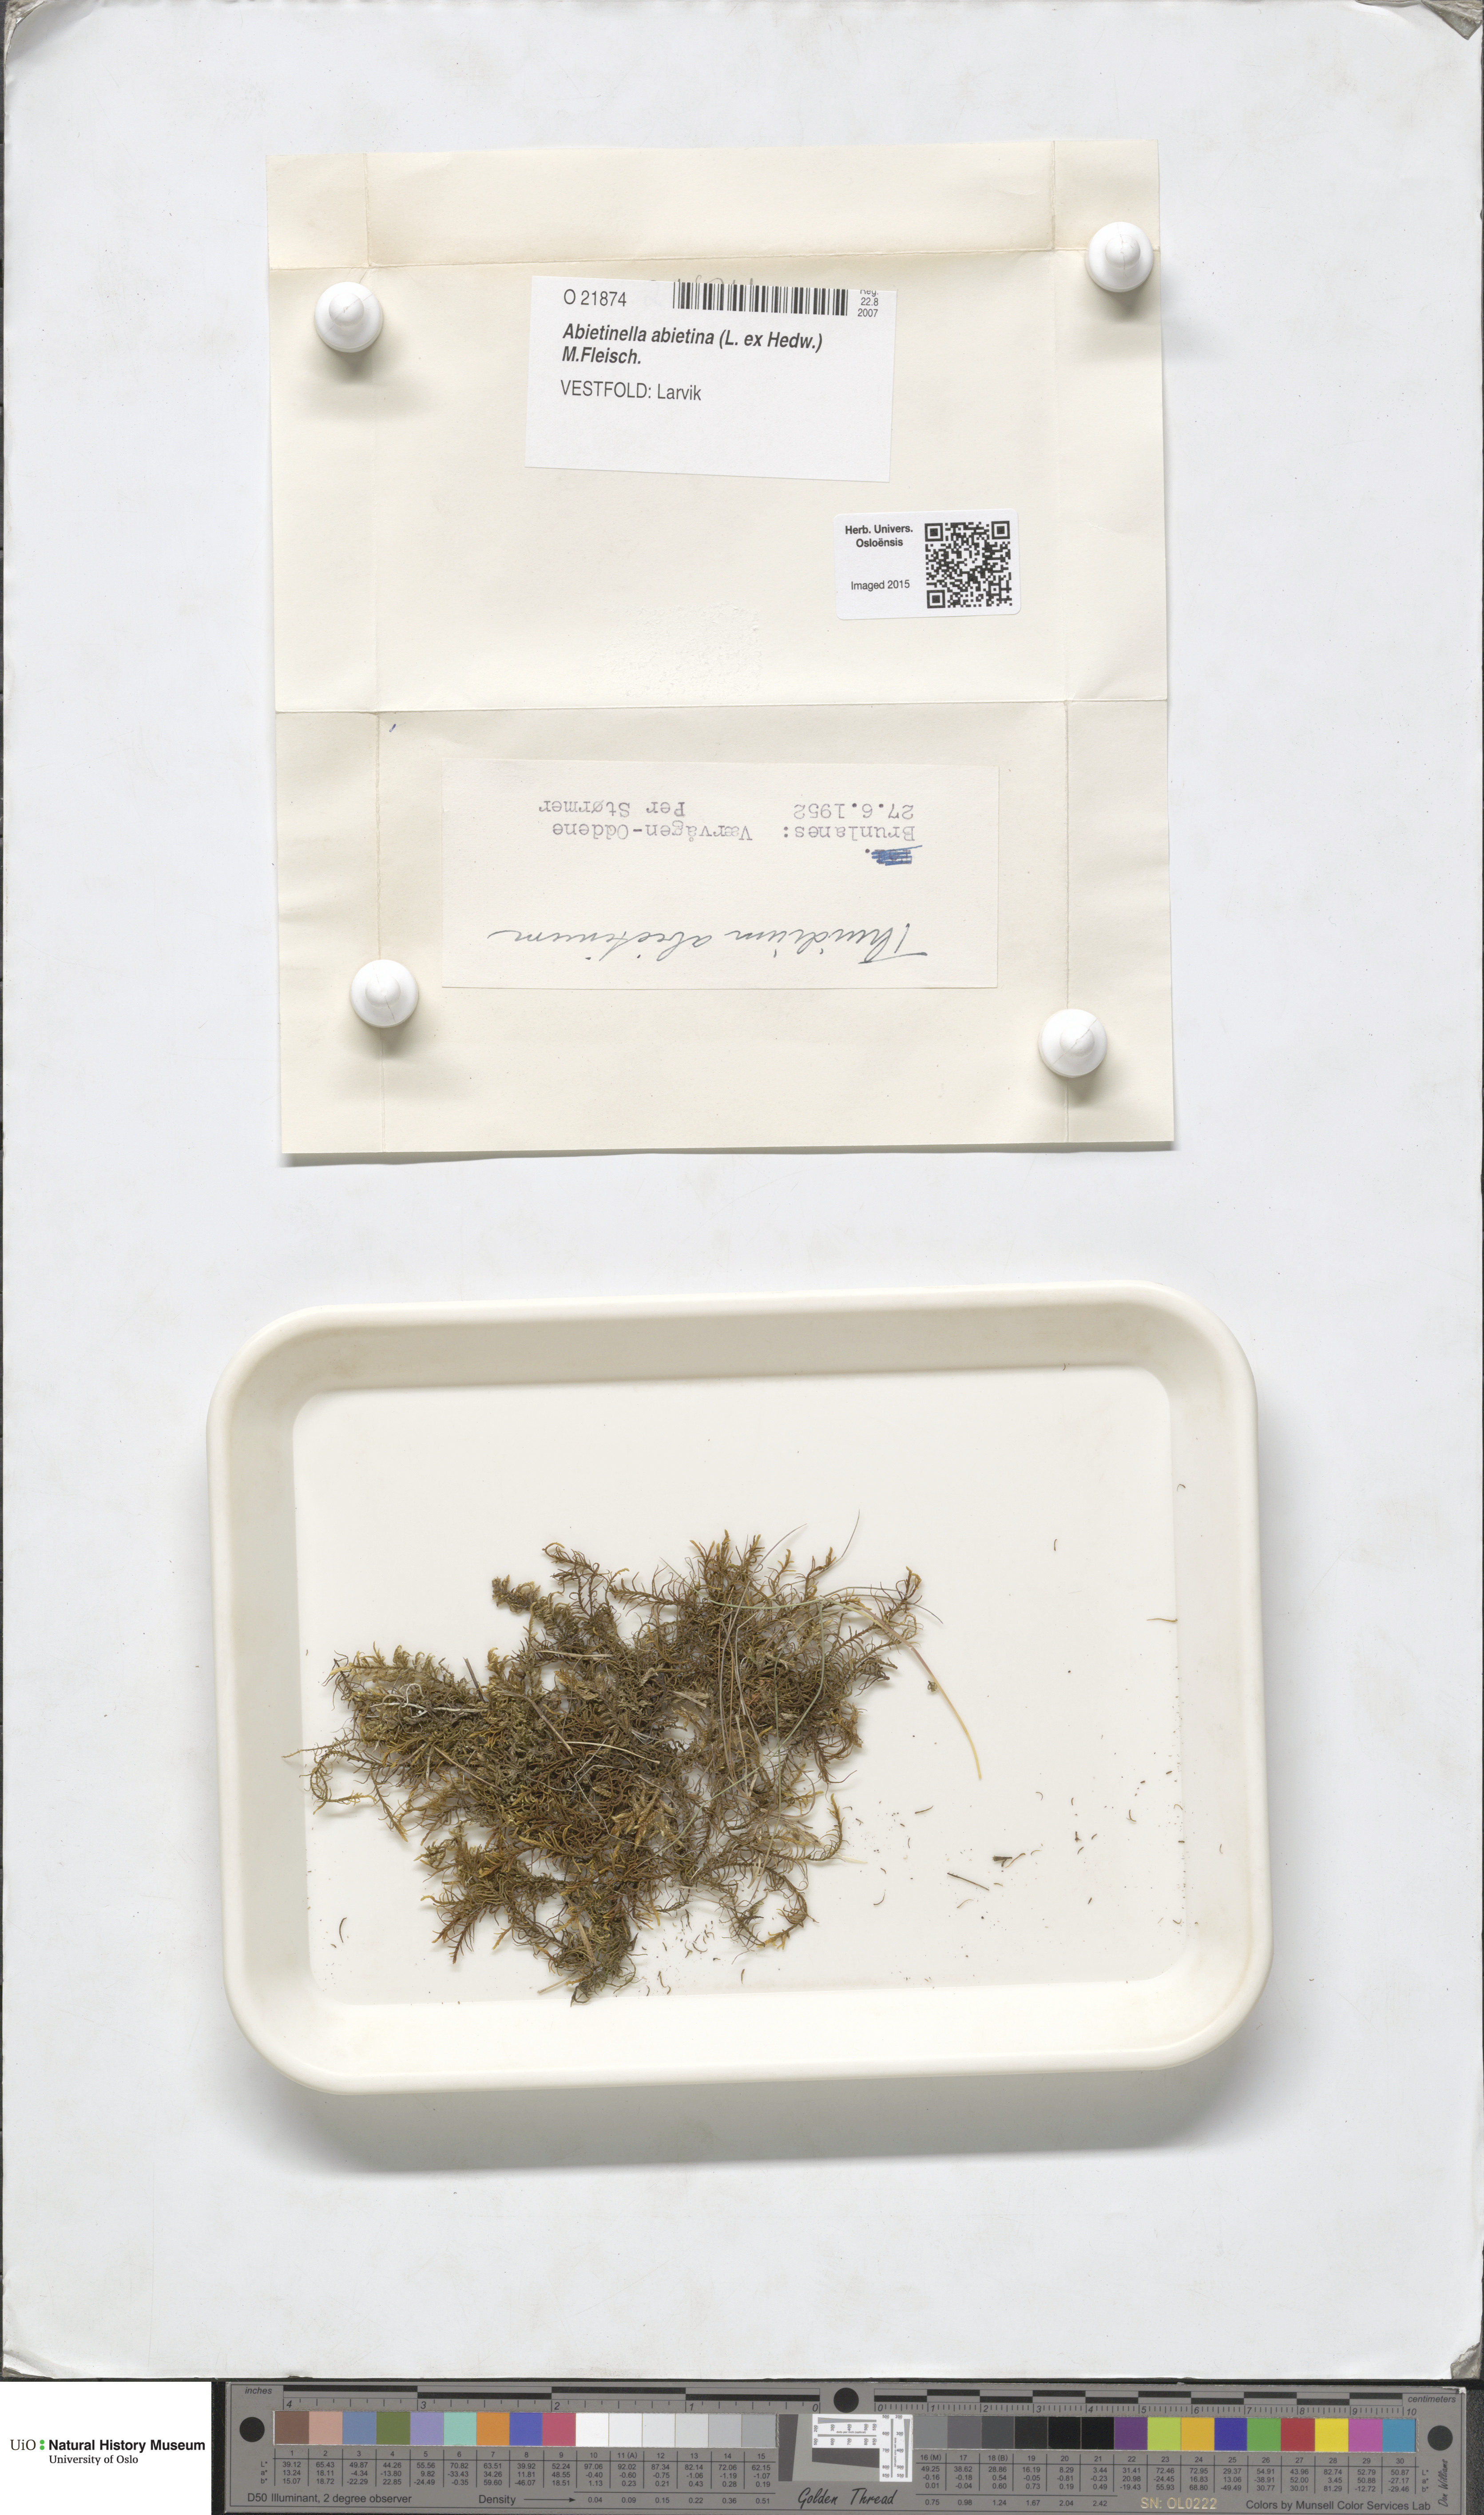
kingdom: Plantae
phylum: Bryophyta
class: Bryopsida
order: Hypnales
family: Thuidiaceae
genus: Abietinella
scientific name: Abietinella abietina
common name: Wiry fern moss
